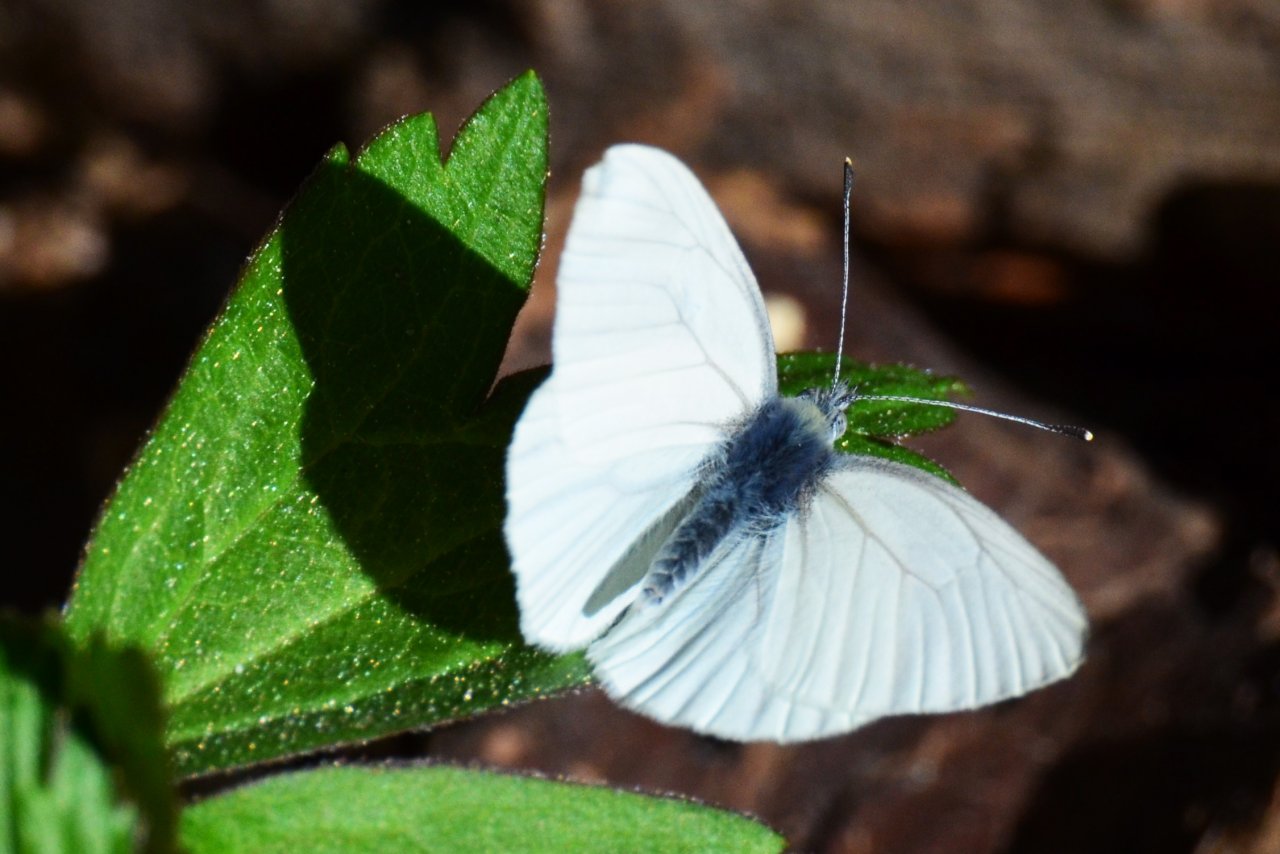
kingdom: Animalia
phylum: Arthropoda
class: Insecta
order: Lepidoptera
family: Pieridae
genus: Pieris
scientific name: Pieris oleracea
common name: Mustard White
